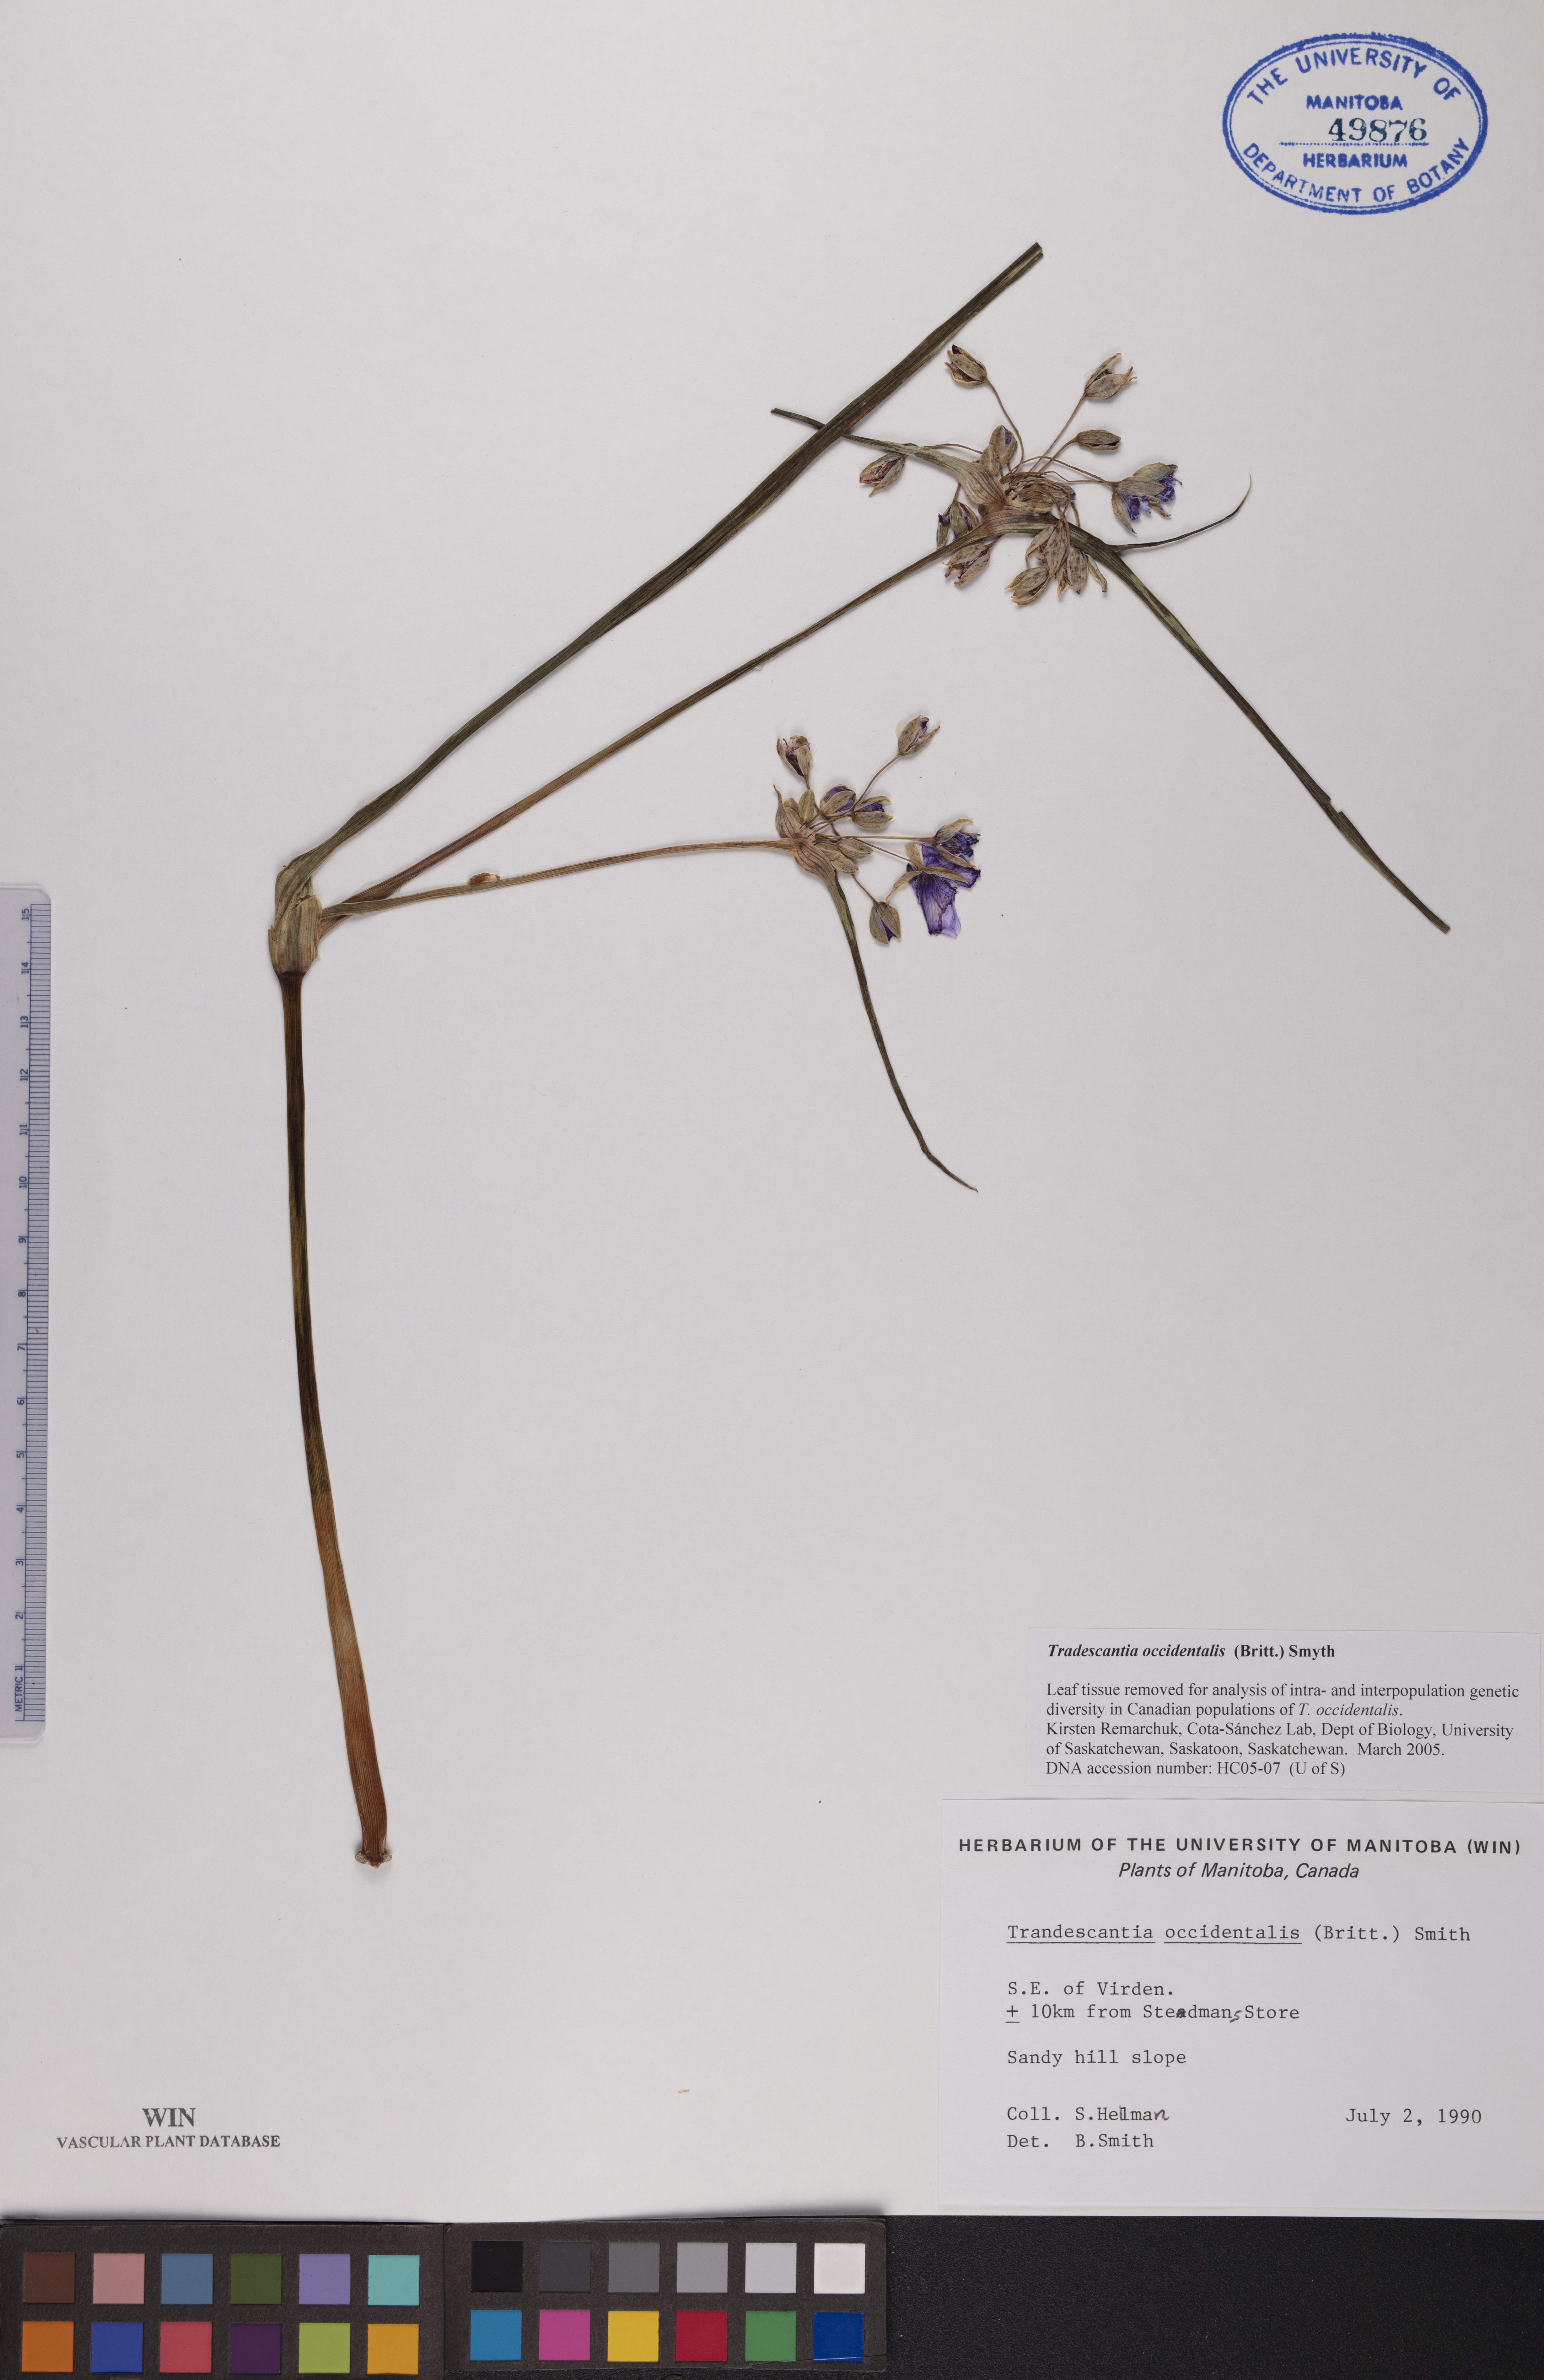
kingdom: Plantae
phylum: Tracheophyta
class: Liliopsida
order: Commelinales
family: Commelinaceae
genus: Tradescantia
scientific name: Tradescantia occidentalis
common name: Prairie spiderwort
